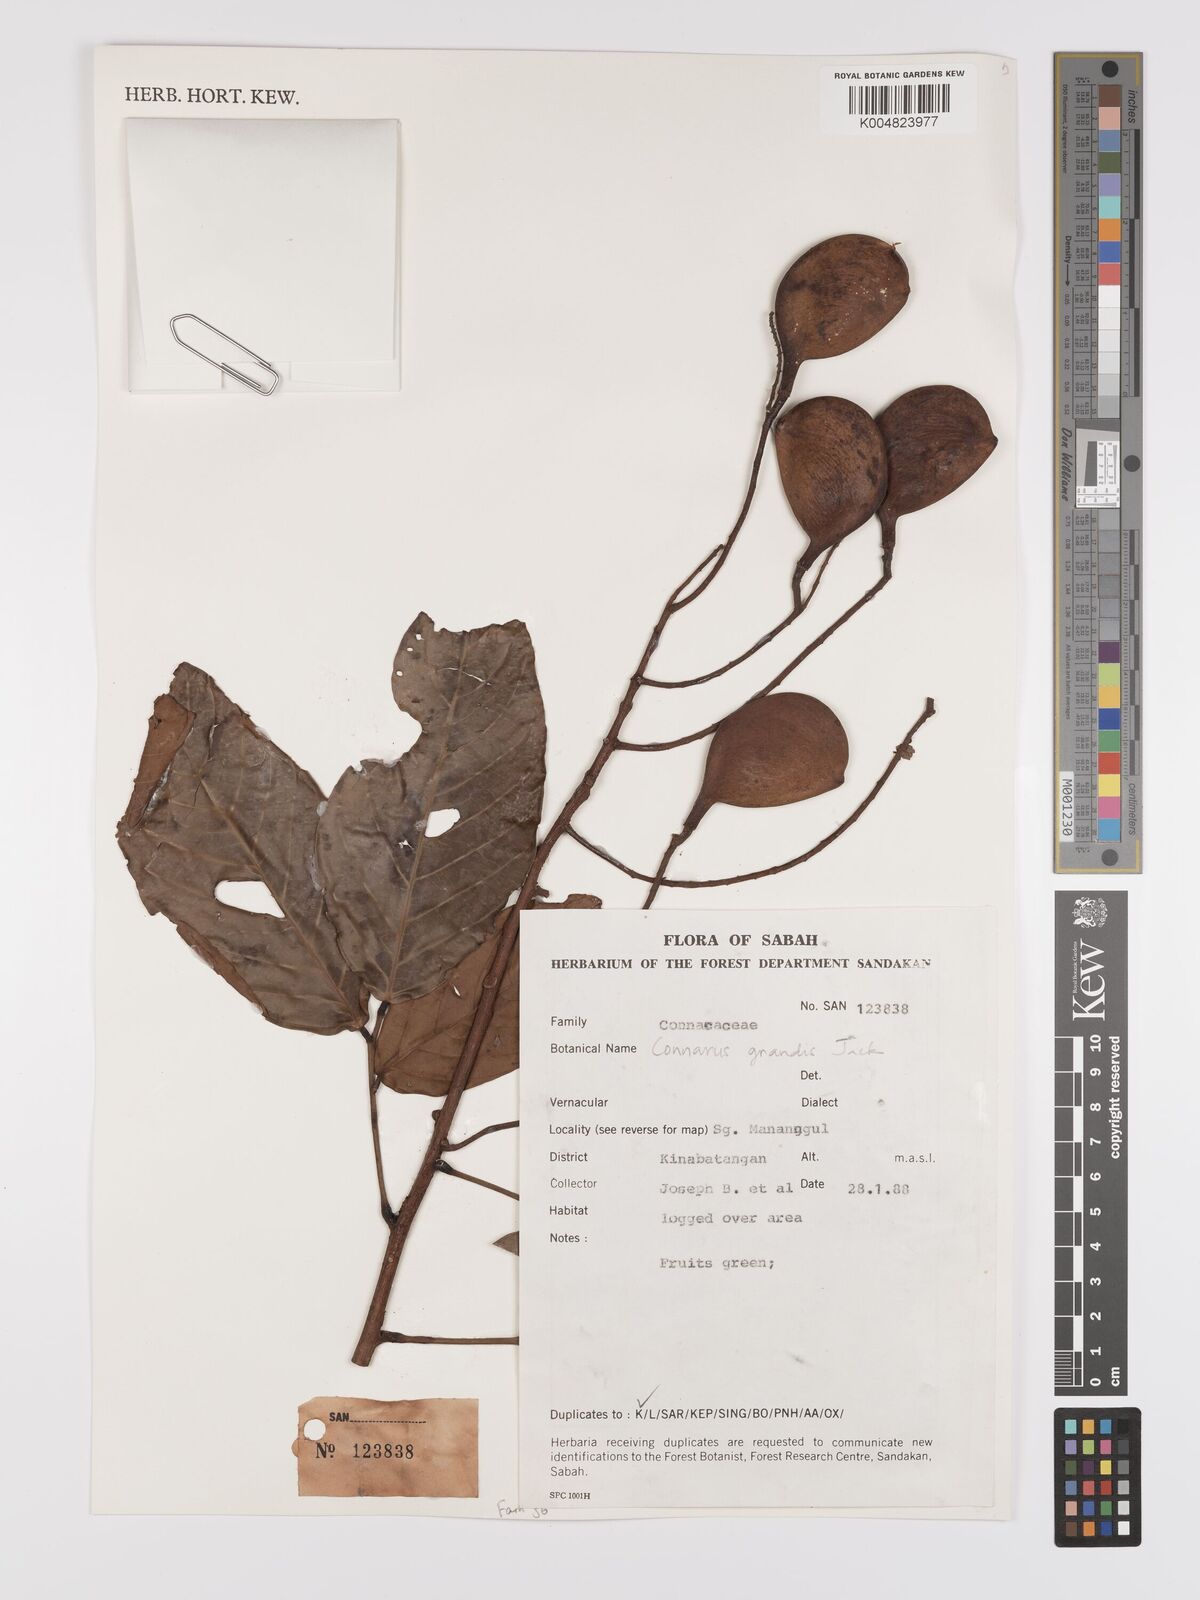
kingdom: Plantae
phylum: Tracheophyta
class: Magnoliopsida
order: Oxalidales
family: Connaraceae
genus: Connarus
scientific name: Connarus grandis
